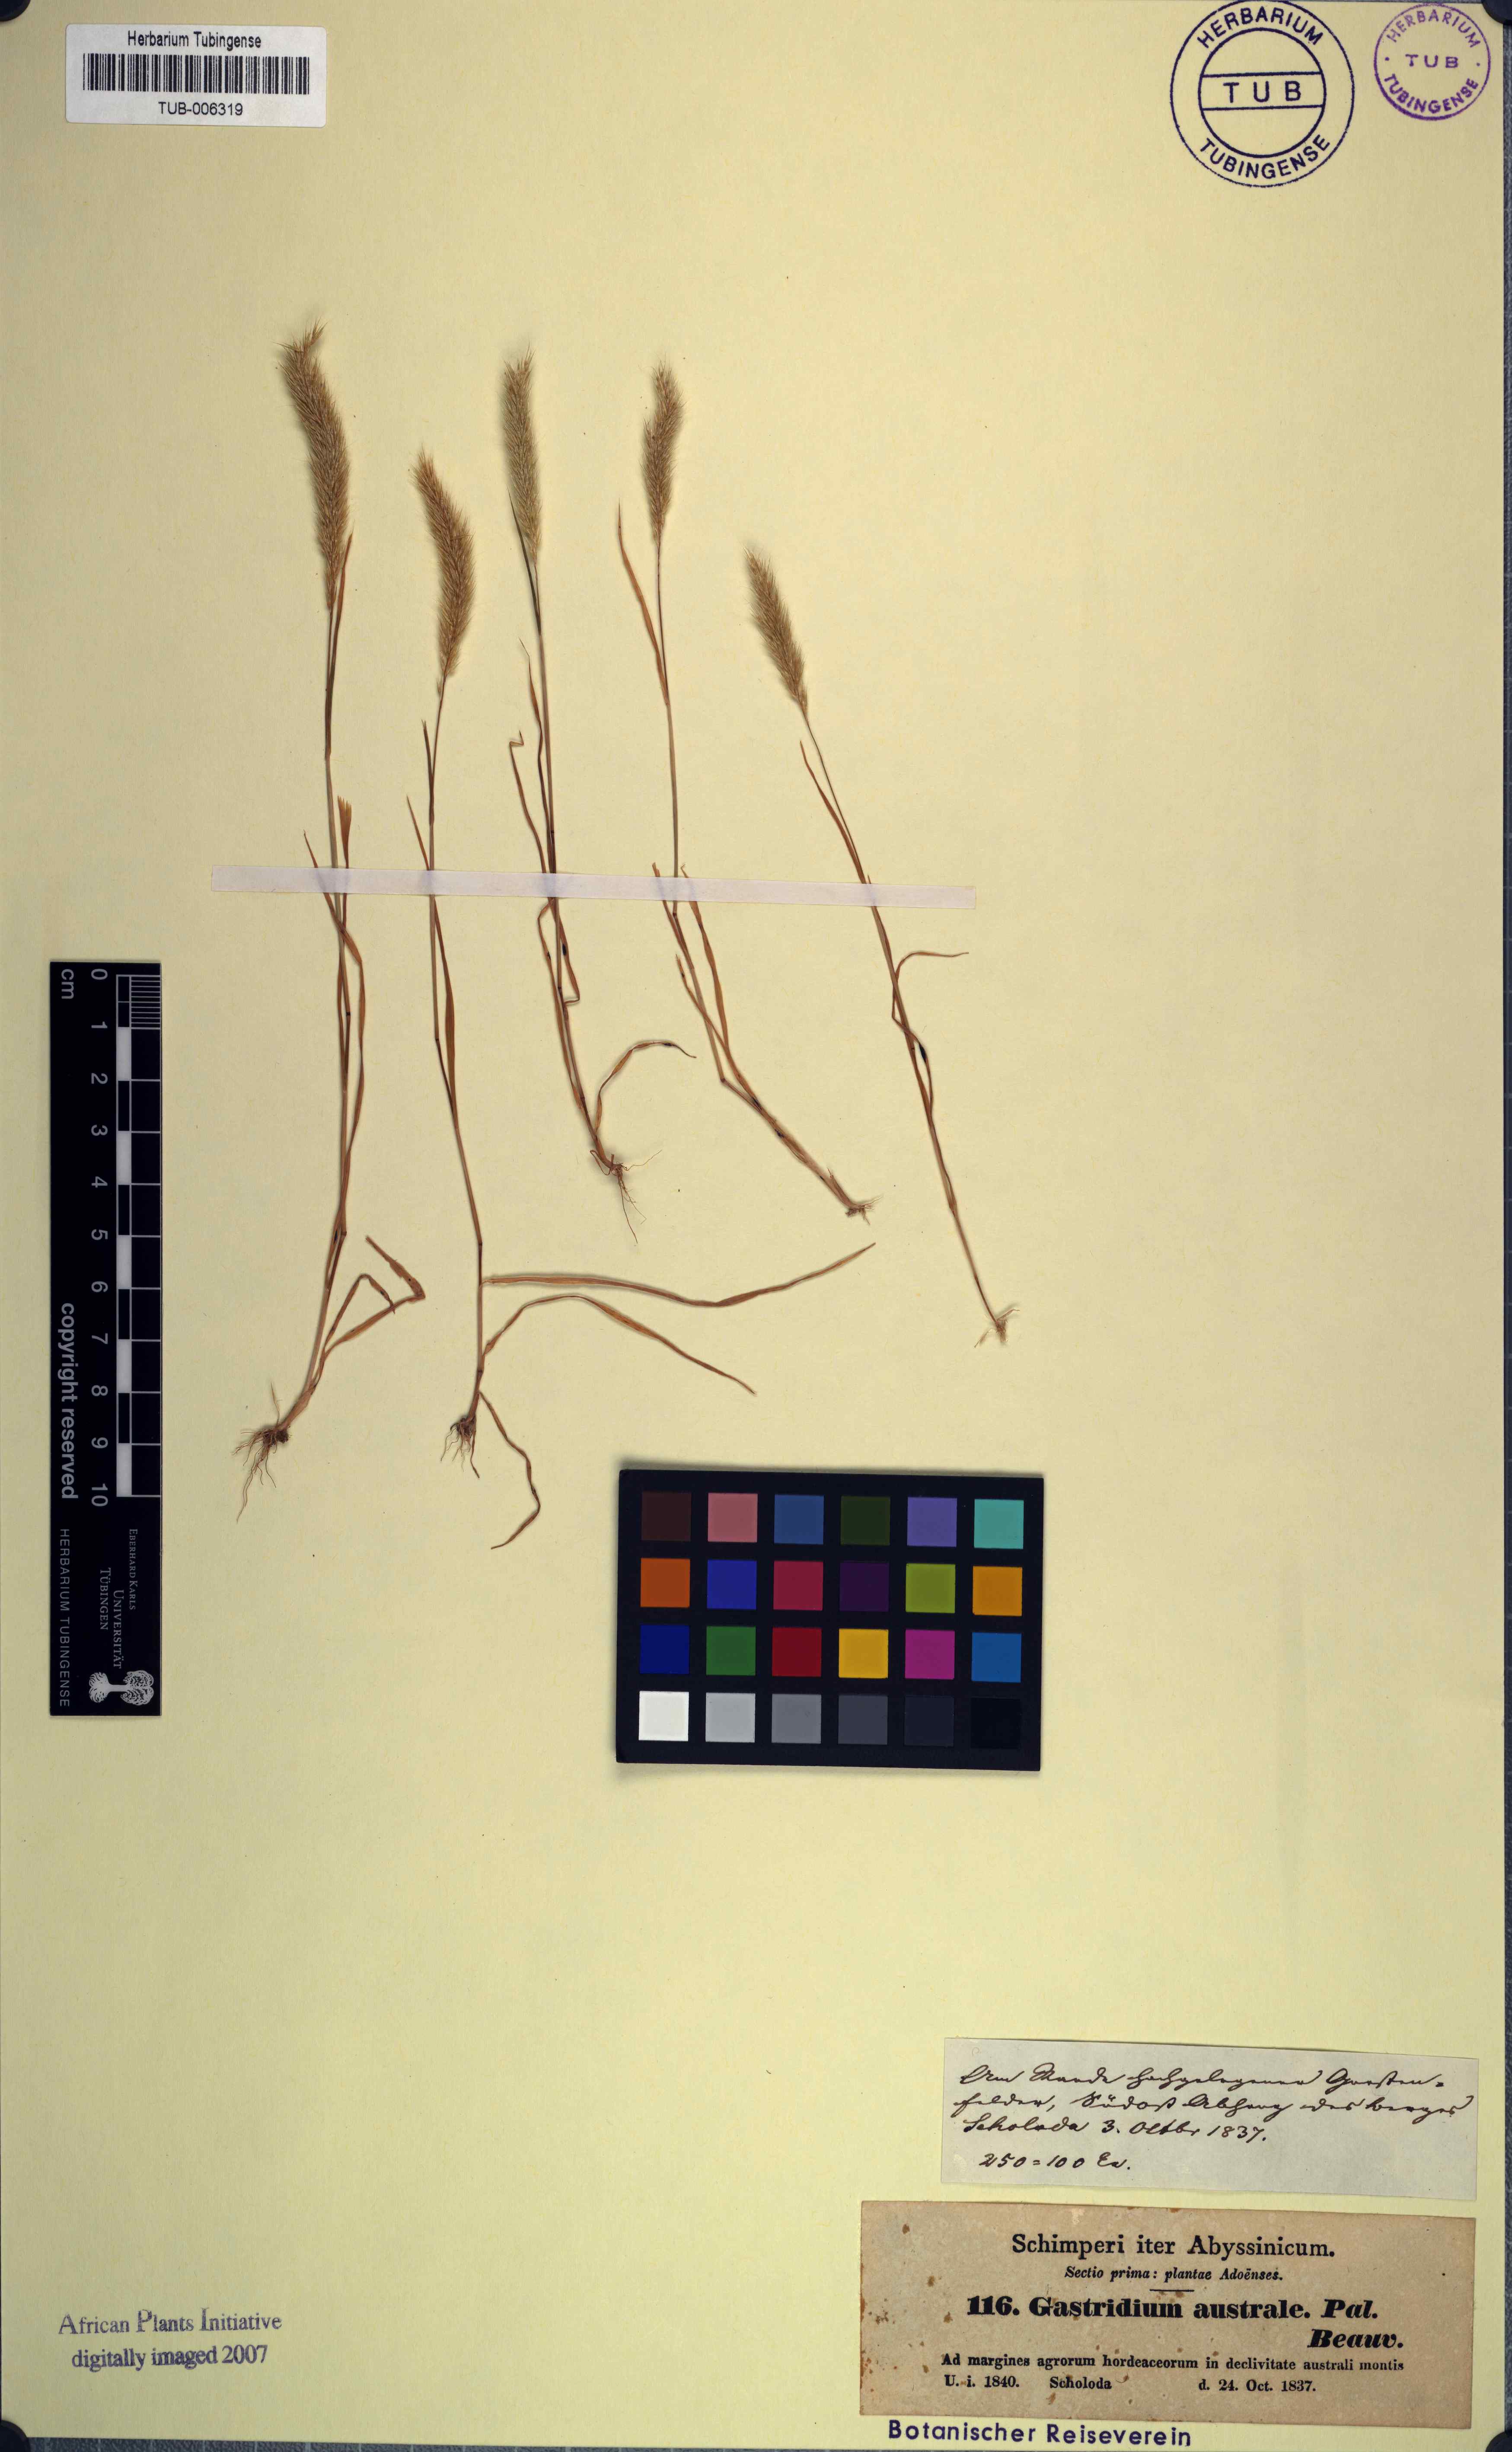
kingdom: Plantae
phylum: Tracheophyta
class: Liliopsida
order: Poales
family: Poaceae
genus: Gastridium
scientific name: Gastridium ventricosum
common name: Nit-grass
